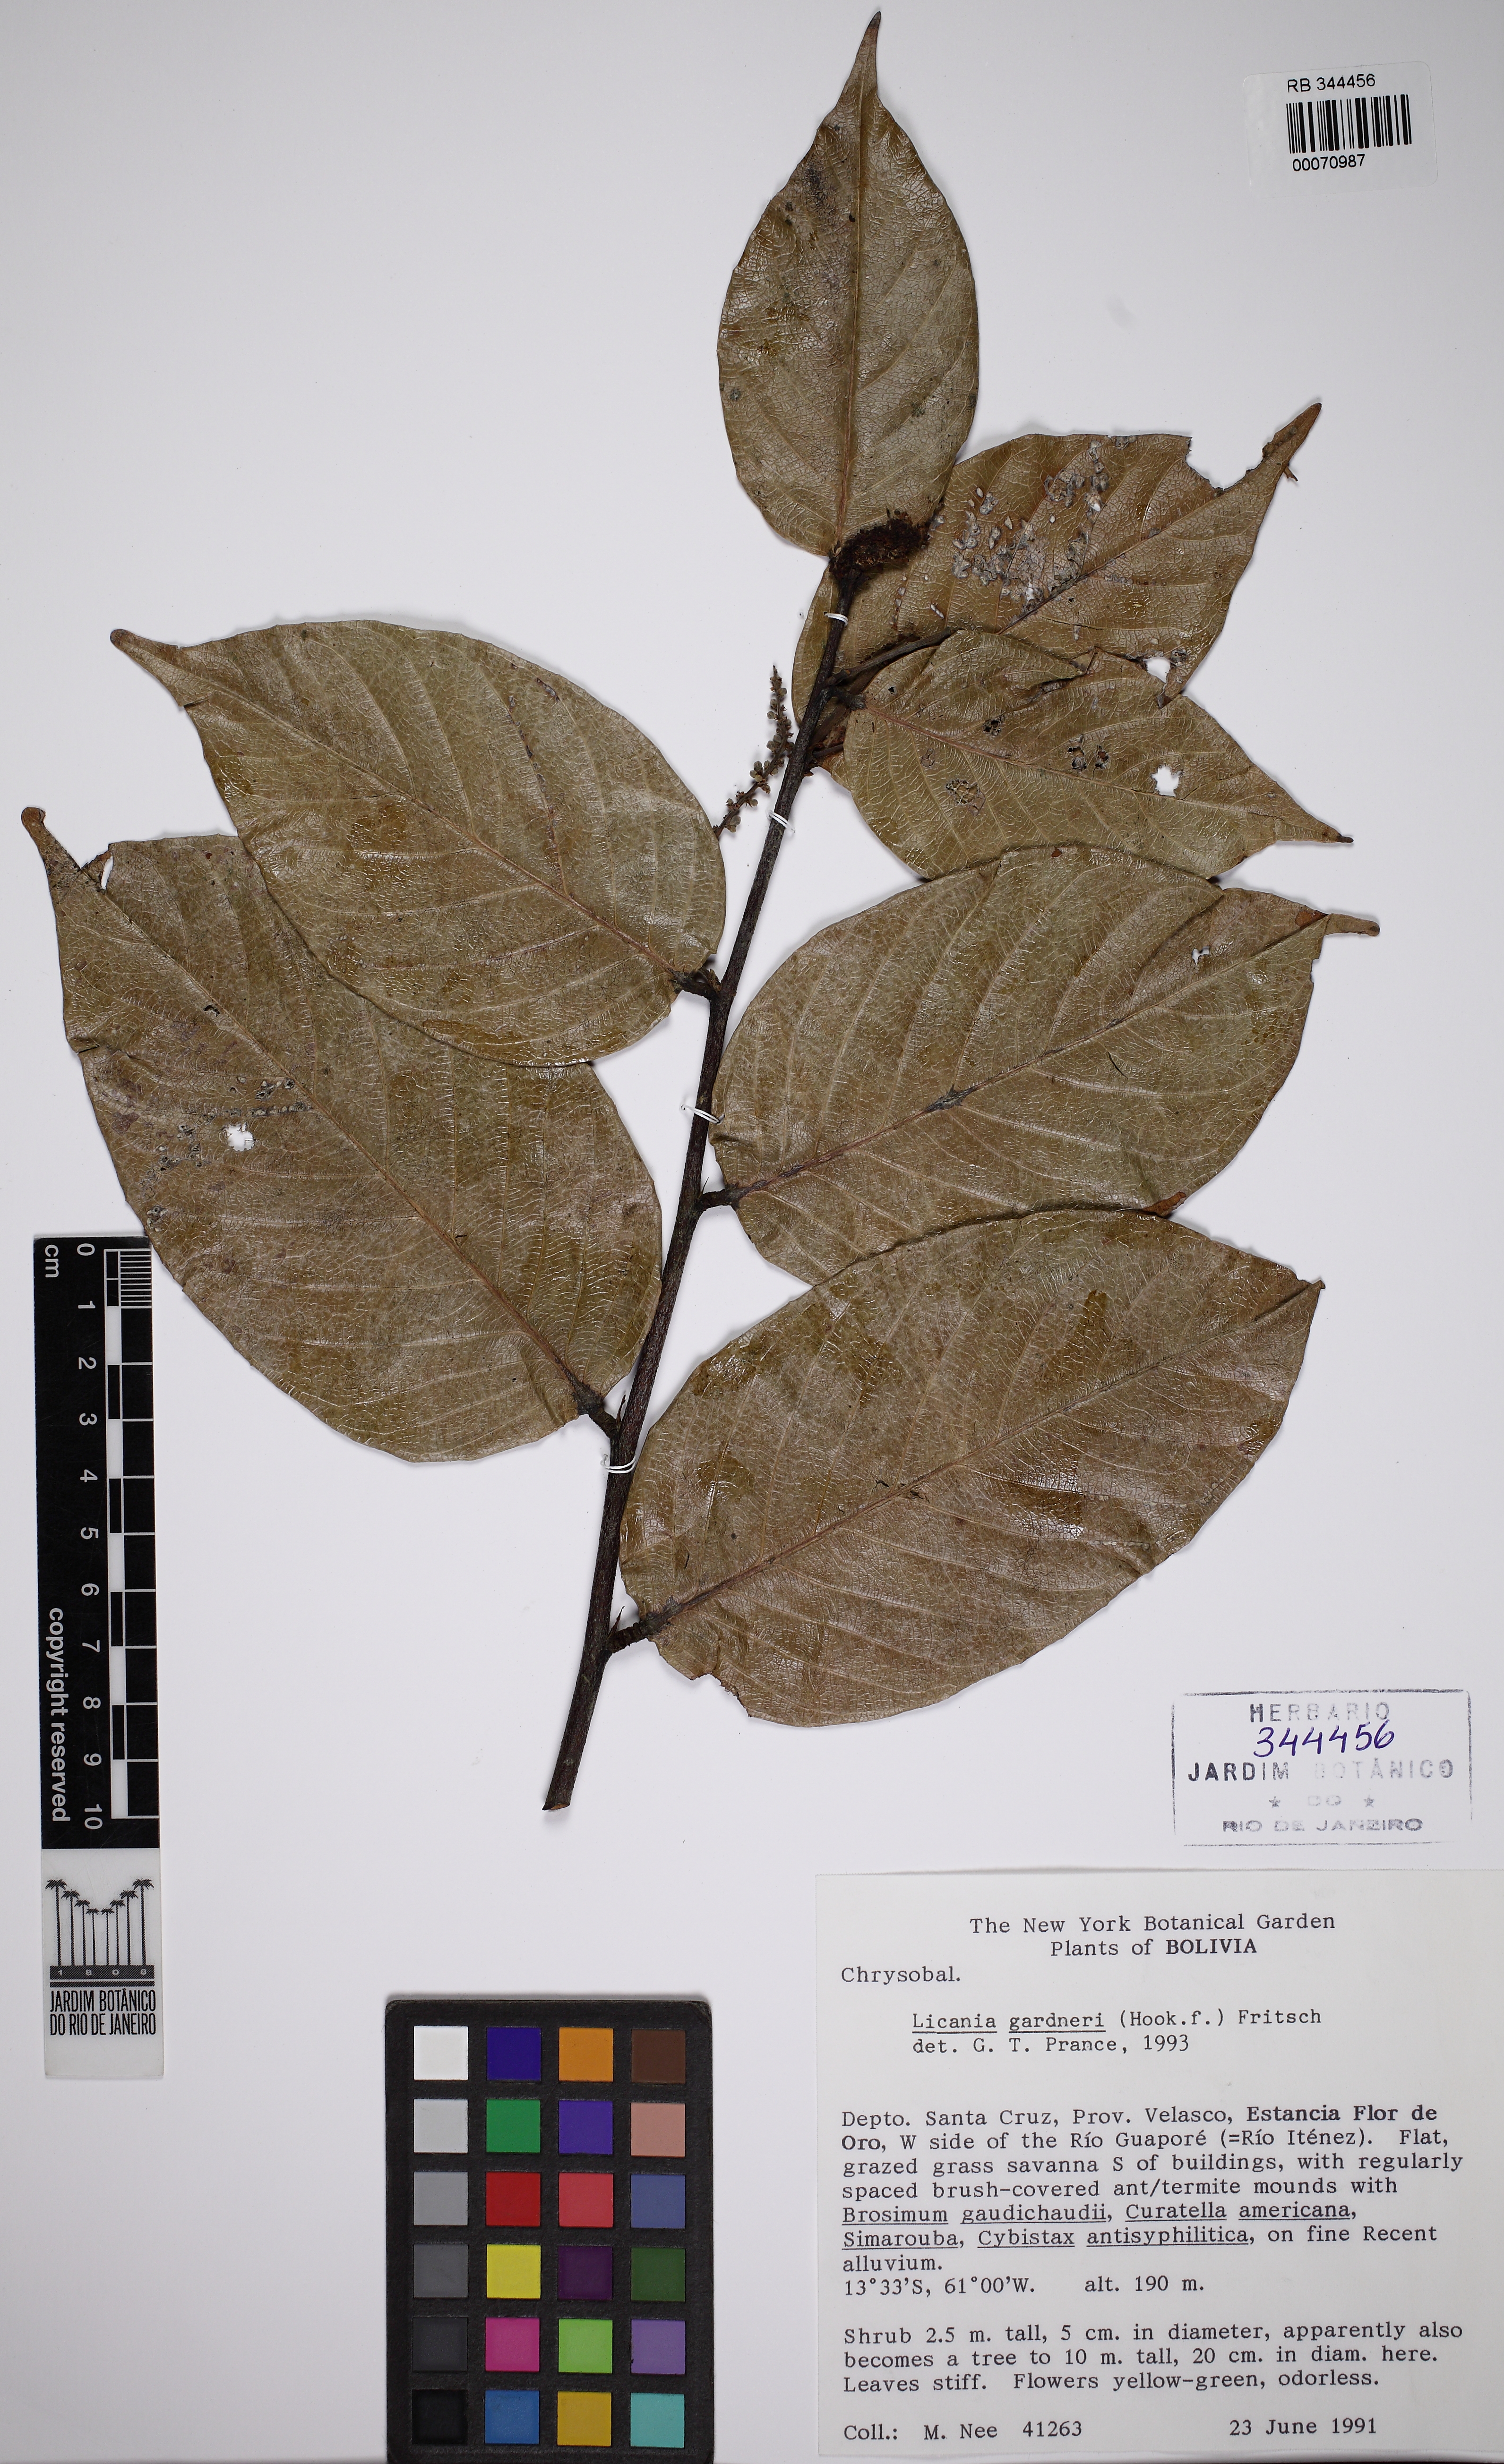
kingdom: Plantae
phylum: Tracheophyta
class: Magnoliopsida
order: Malpighiales
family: Chrysobalanaceae
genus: Leptobalanus
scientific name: Leptobalanus gardneri
